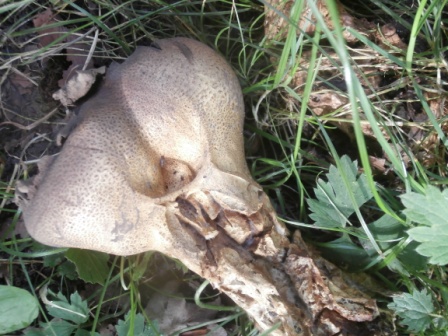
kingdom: Fungi
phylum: Basidiomycota
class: Agaricomycetes
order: Boletales
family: Sclerodermataceae
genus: Scleroderma
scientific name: Scleroderma verrucosum
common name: stilket bruskbold
